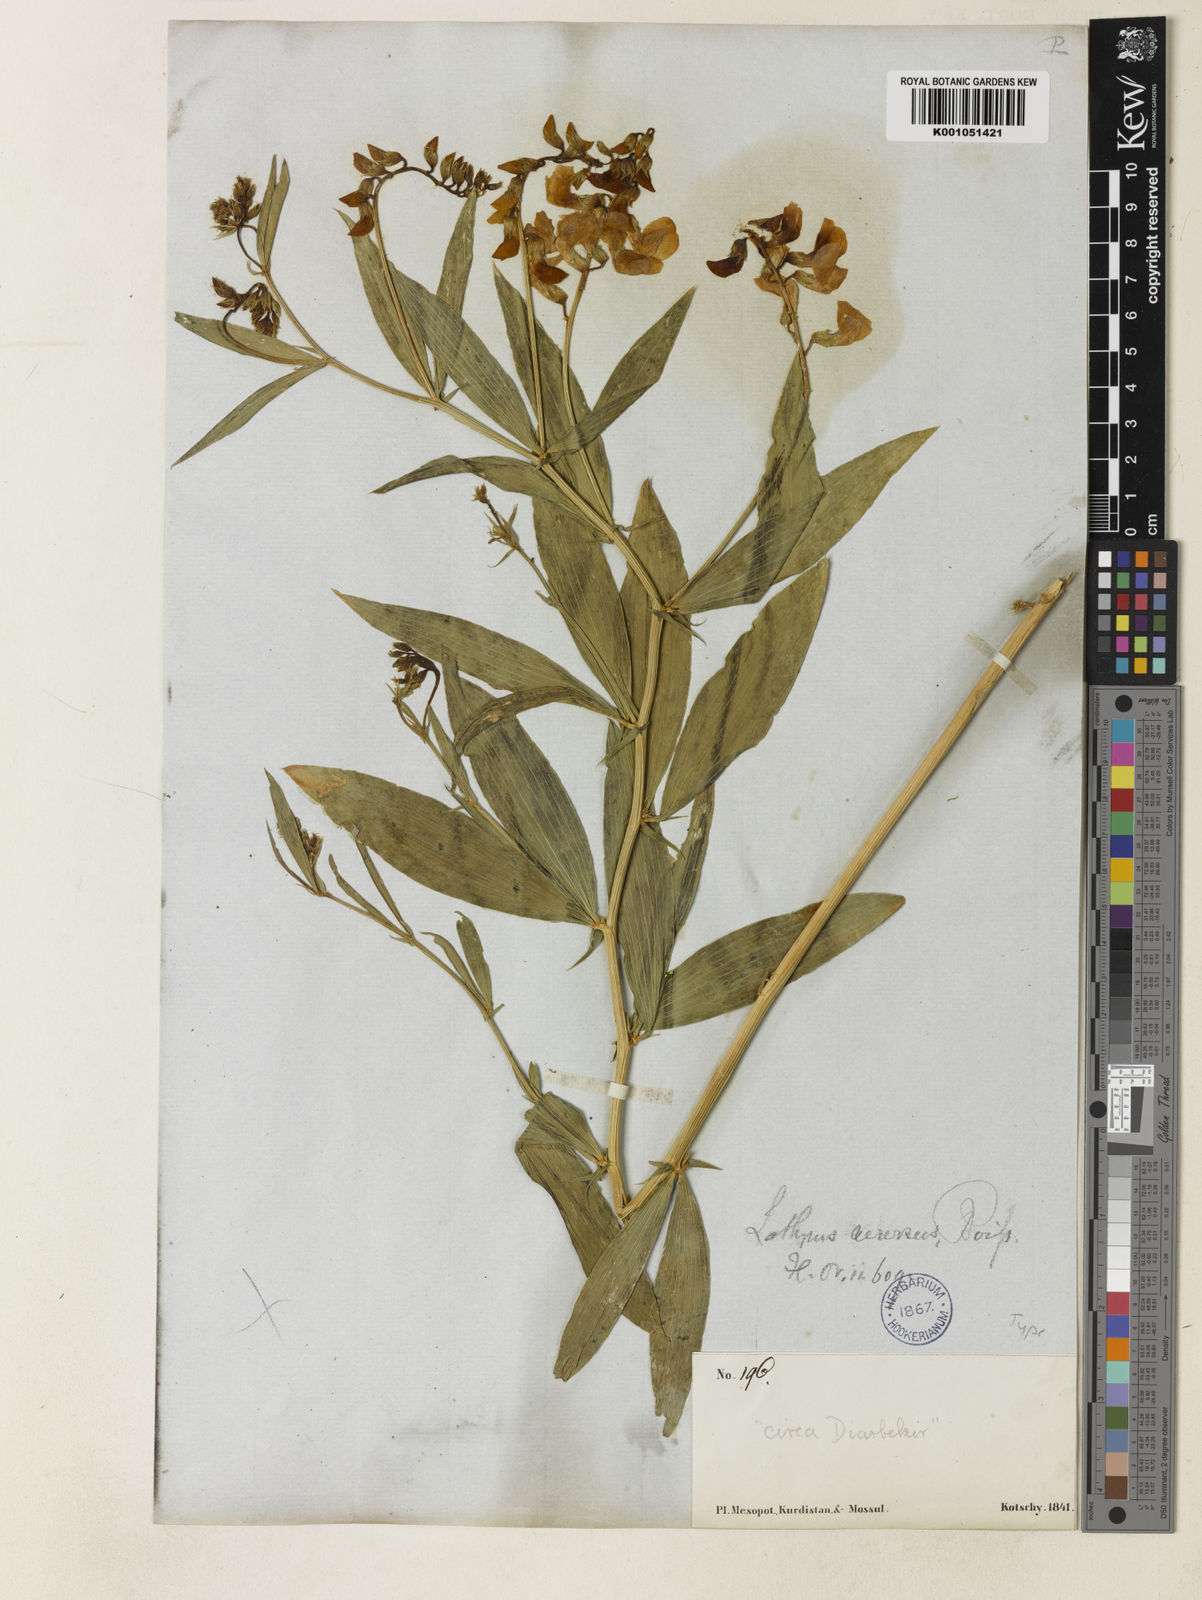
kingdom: Plantae
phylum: Tracheophyta
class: Magnoliopsida
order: Fabales
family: Fabaceae
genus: Lathyrus
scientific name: Lathyrus boissieri
